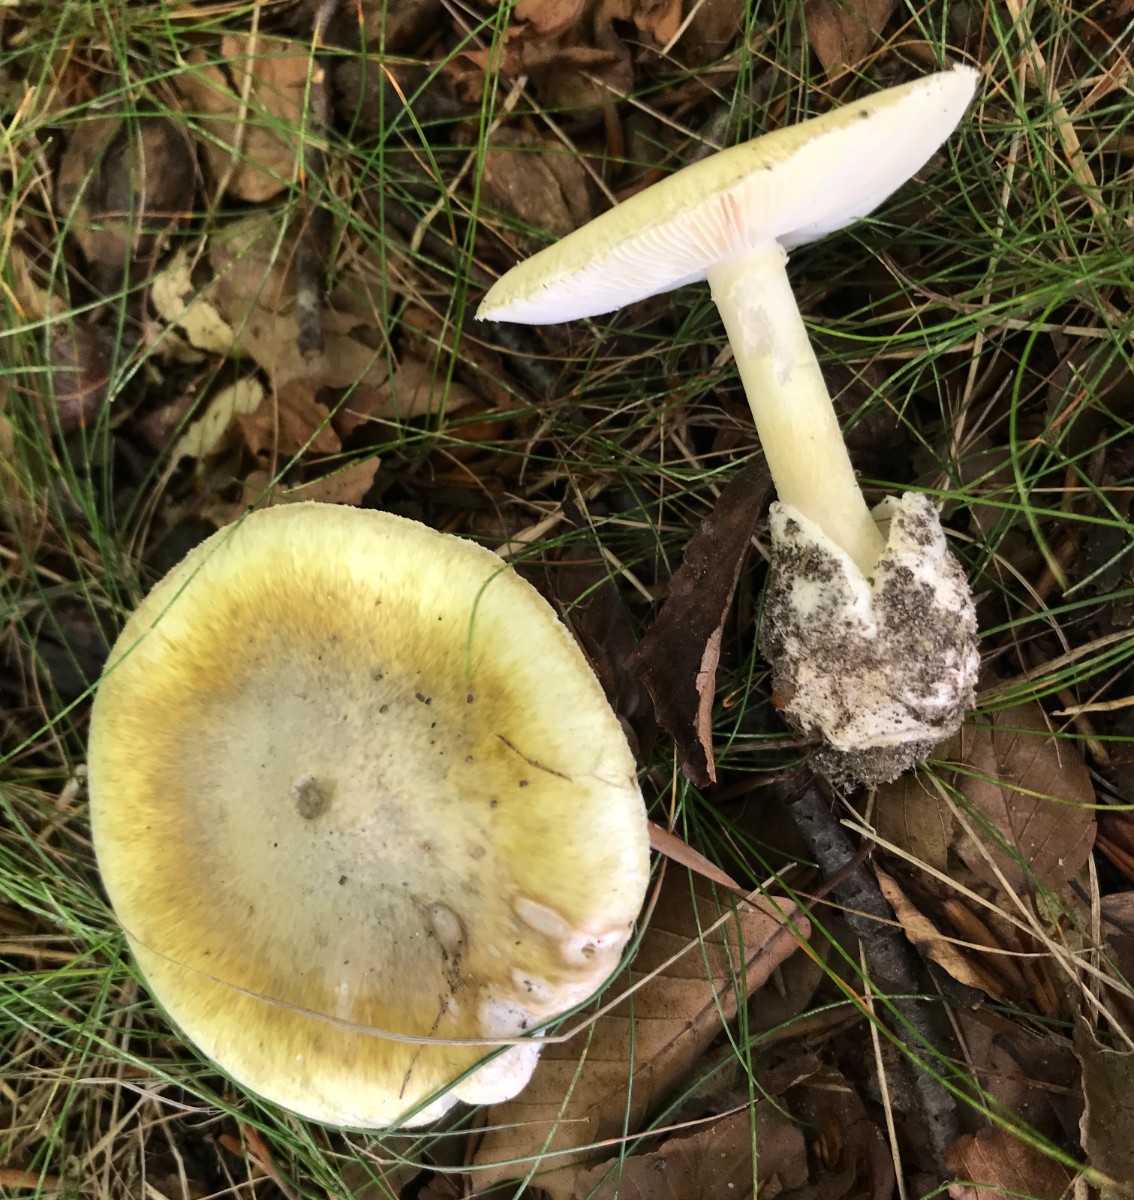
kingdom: Fungi
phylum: Basidiomycota
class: Agaricomycetes
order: Agaricales
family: Amanitaceae
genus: Amanita
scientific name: Amanita phalloides
